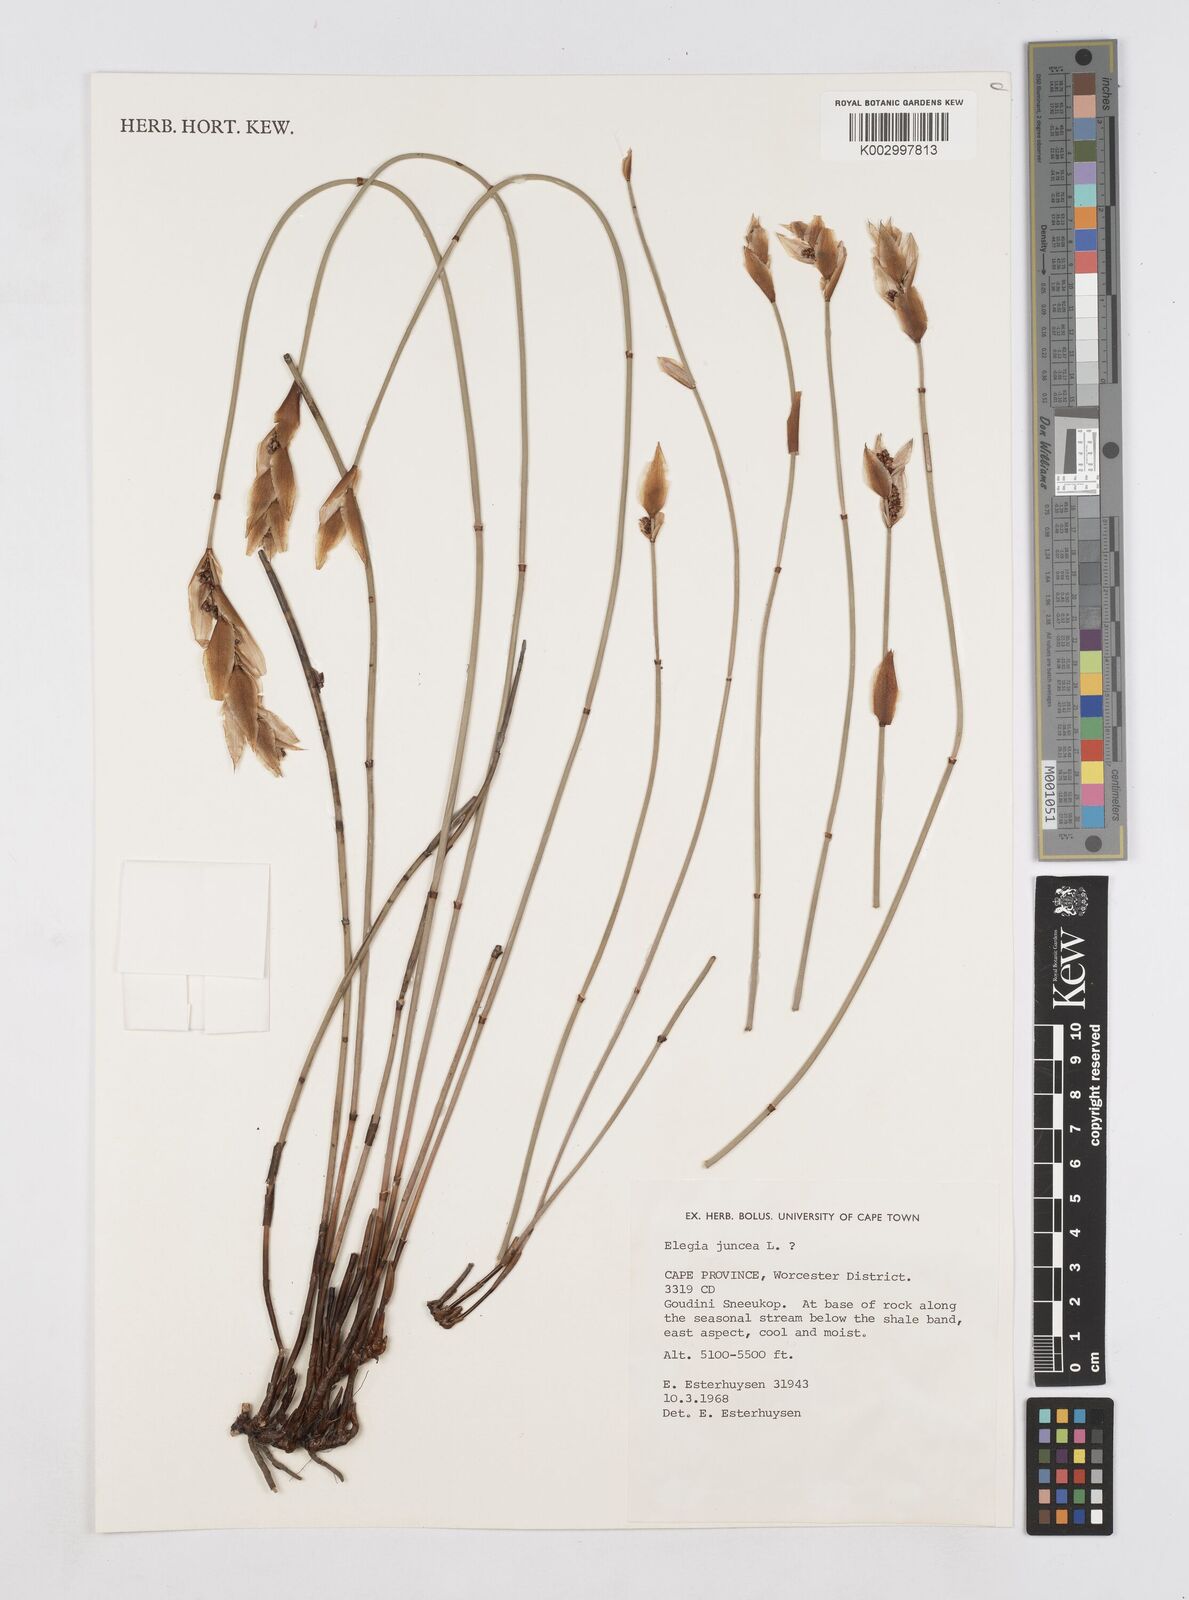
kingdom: Plantae
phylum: Tracheophyta
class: Liliopsida
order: Poales
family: Restionaceae
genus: Elegia
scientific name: Elegia juncea
